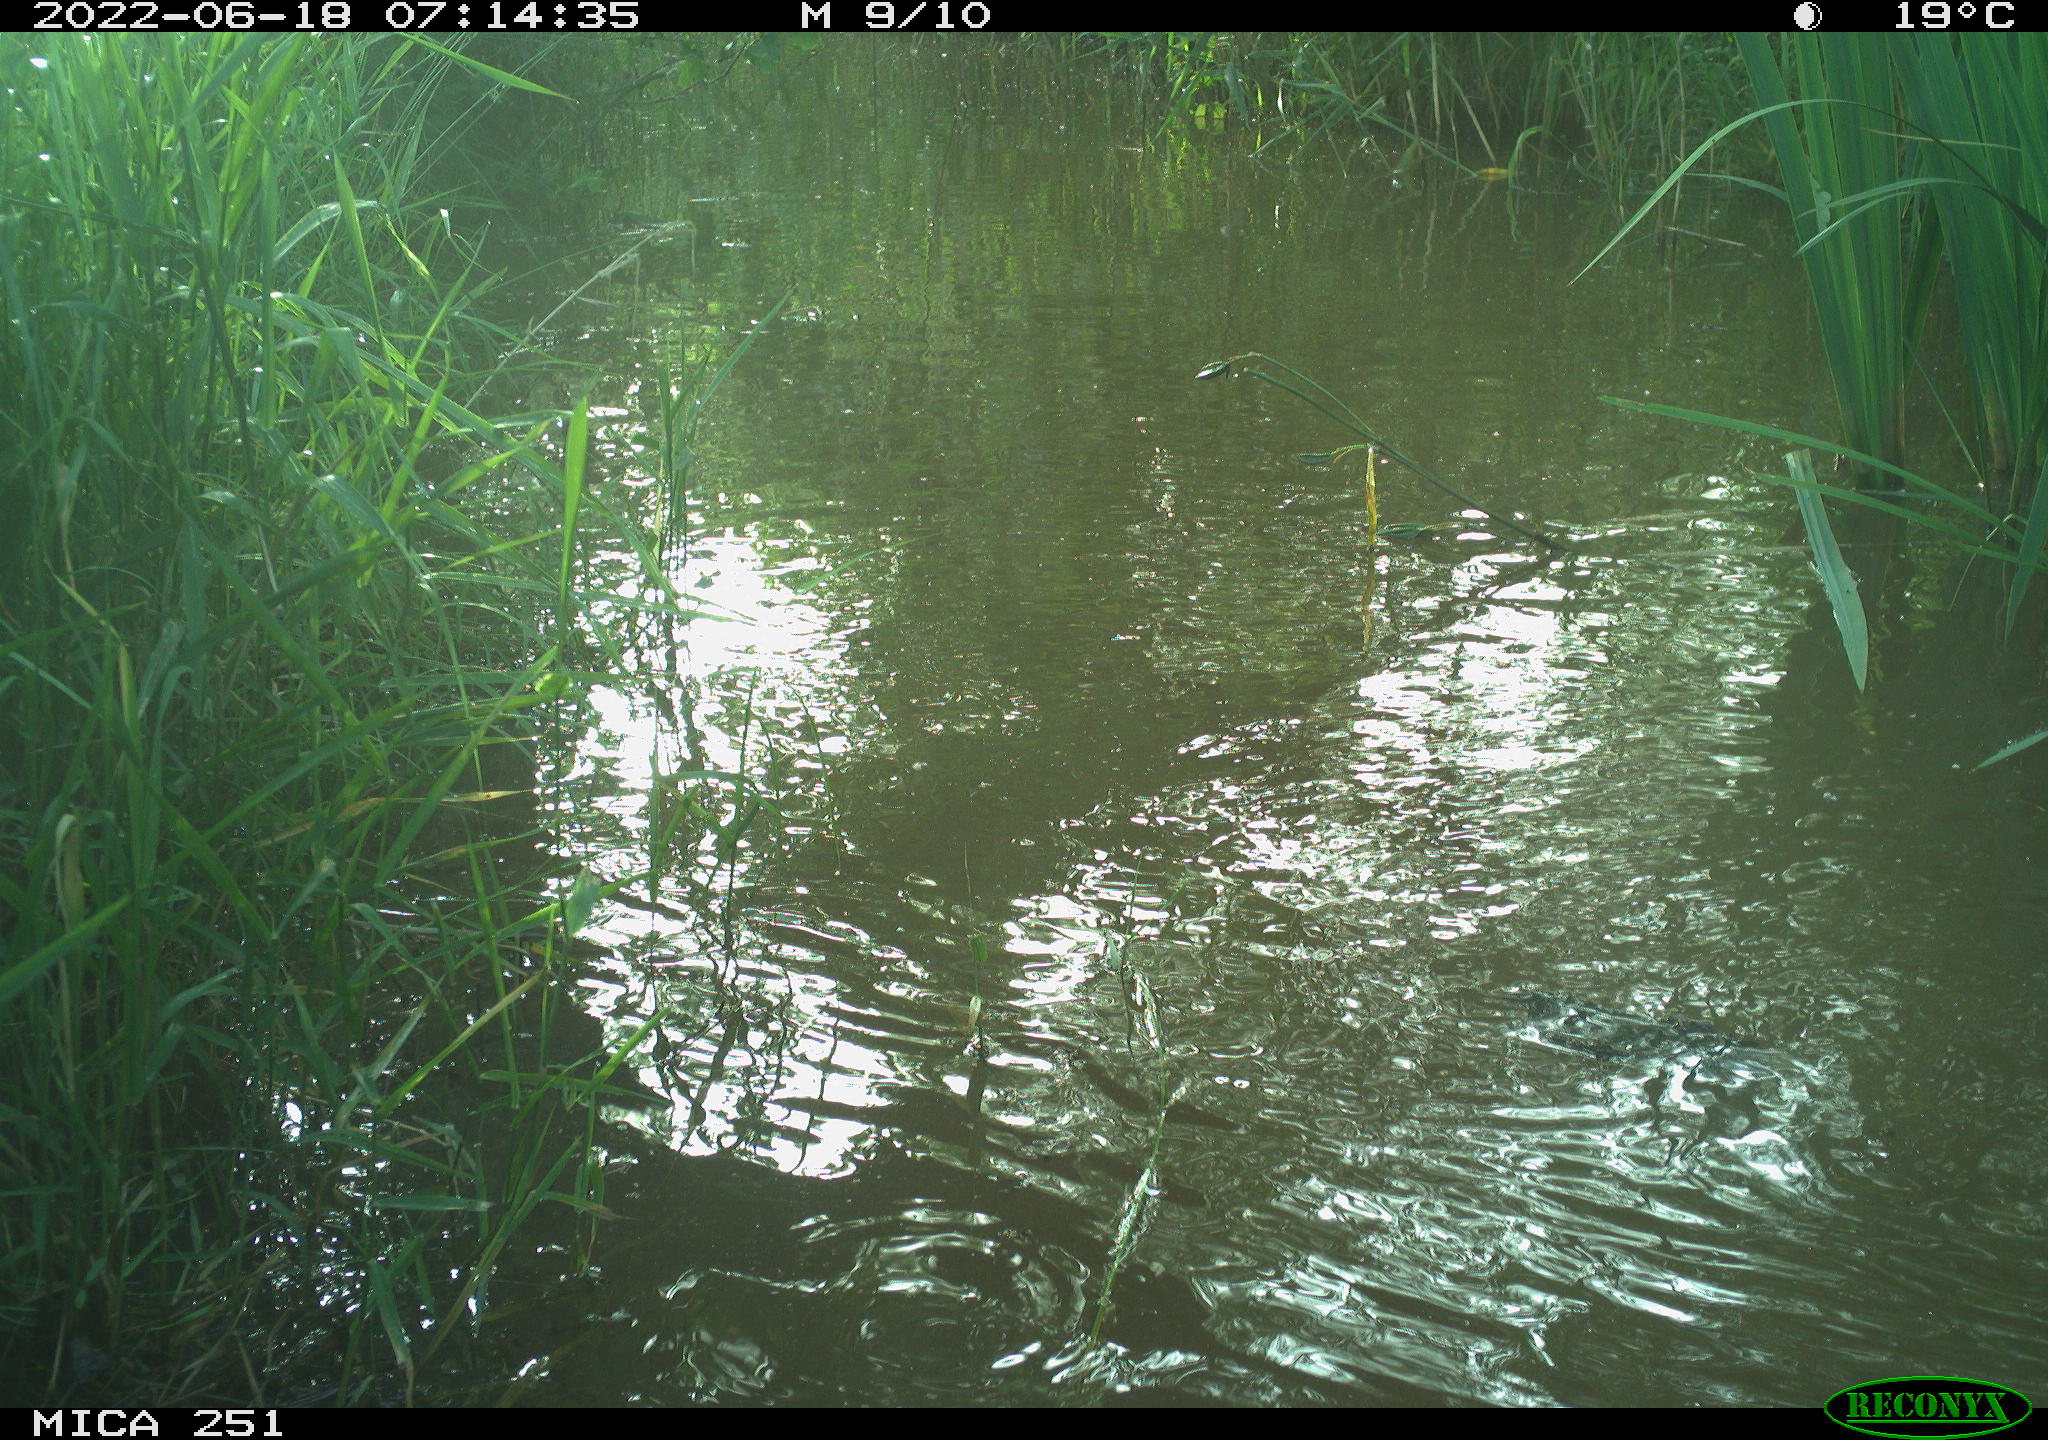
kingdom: Animalia
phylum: Chordata
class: Aves
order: Anseriformes
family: Anatidae
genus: Mareca
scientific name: Mareca strepera
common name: Gadwall
